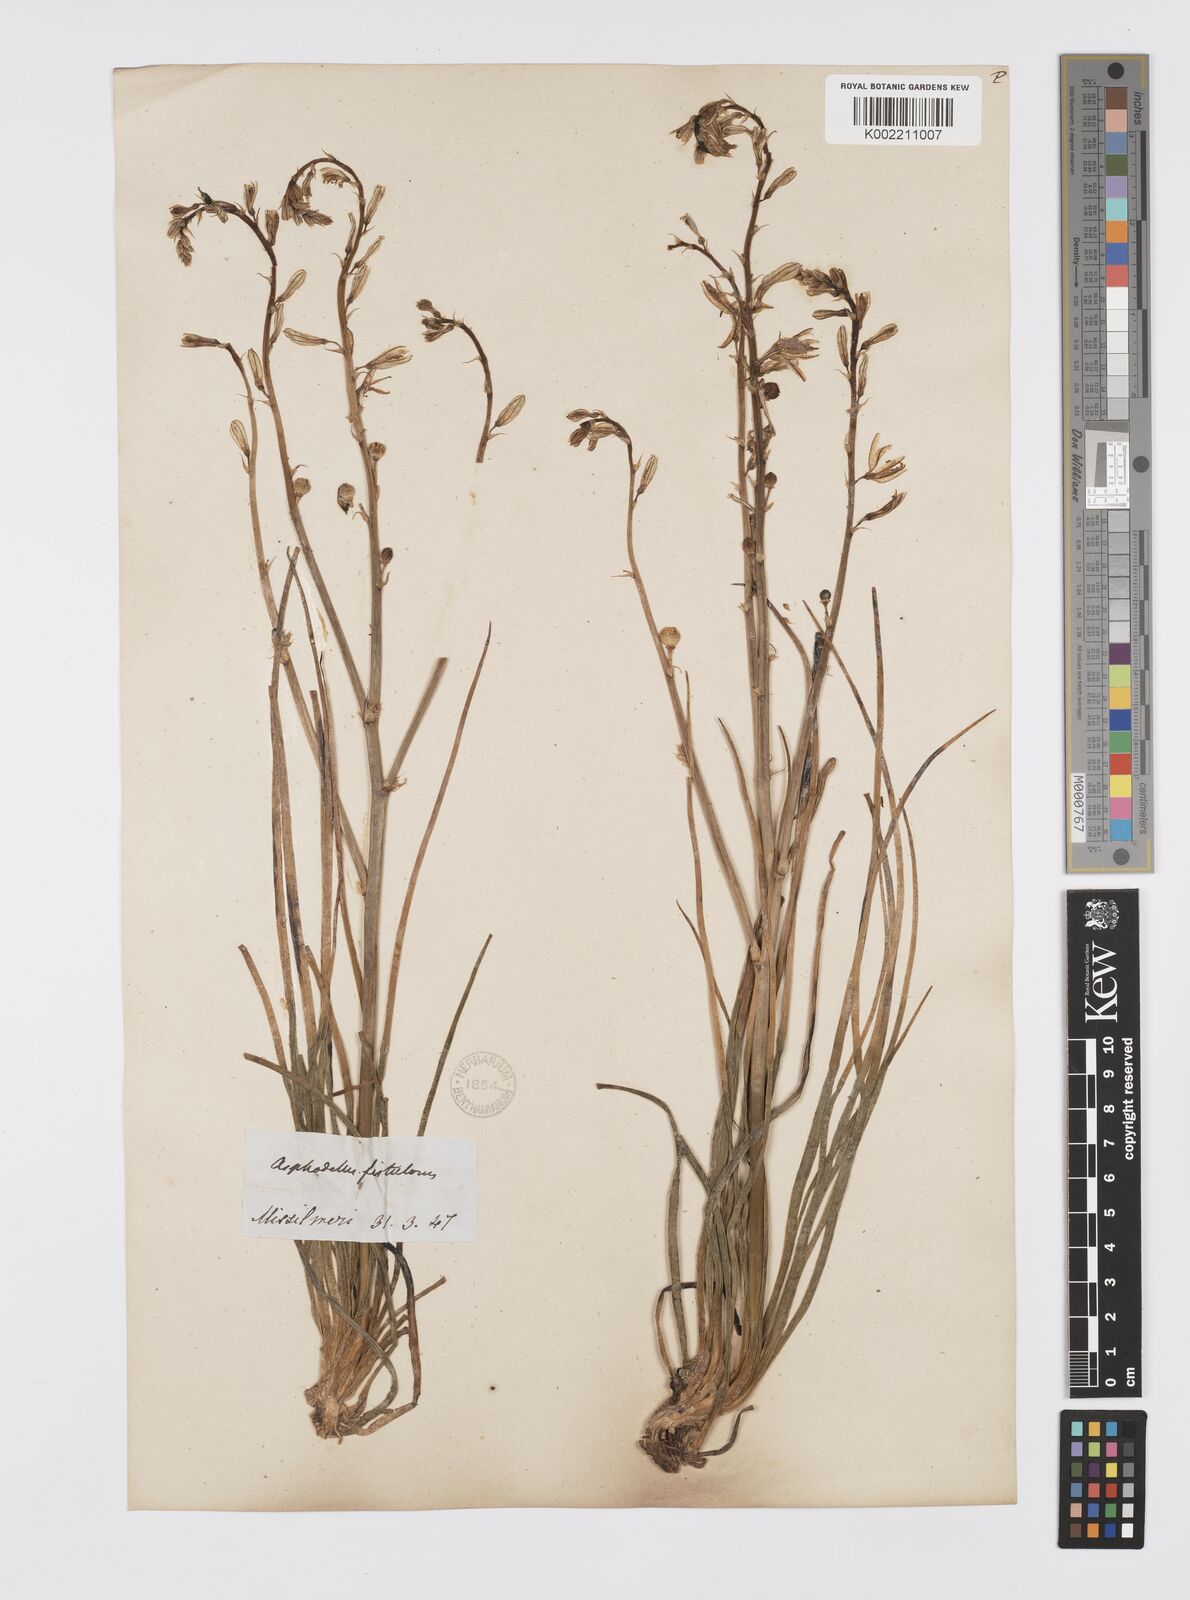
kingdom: Plantae
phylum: Tracheophyta
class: Liliopsida
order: Asparagales
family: Asphodelaceae
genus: Asphodelus
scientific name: Asphodelus fistulosus
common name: Onionweed
